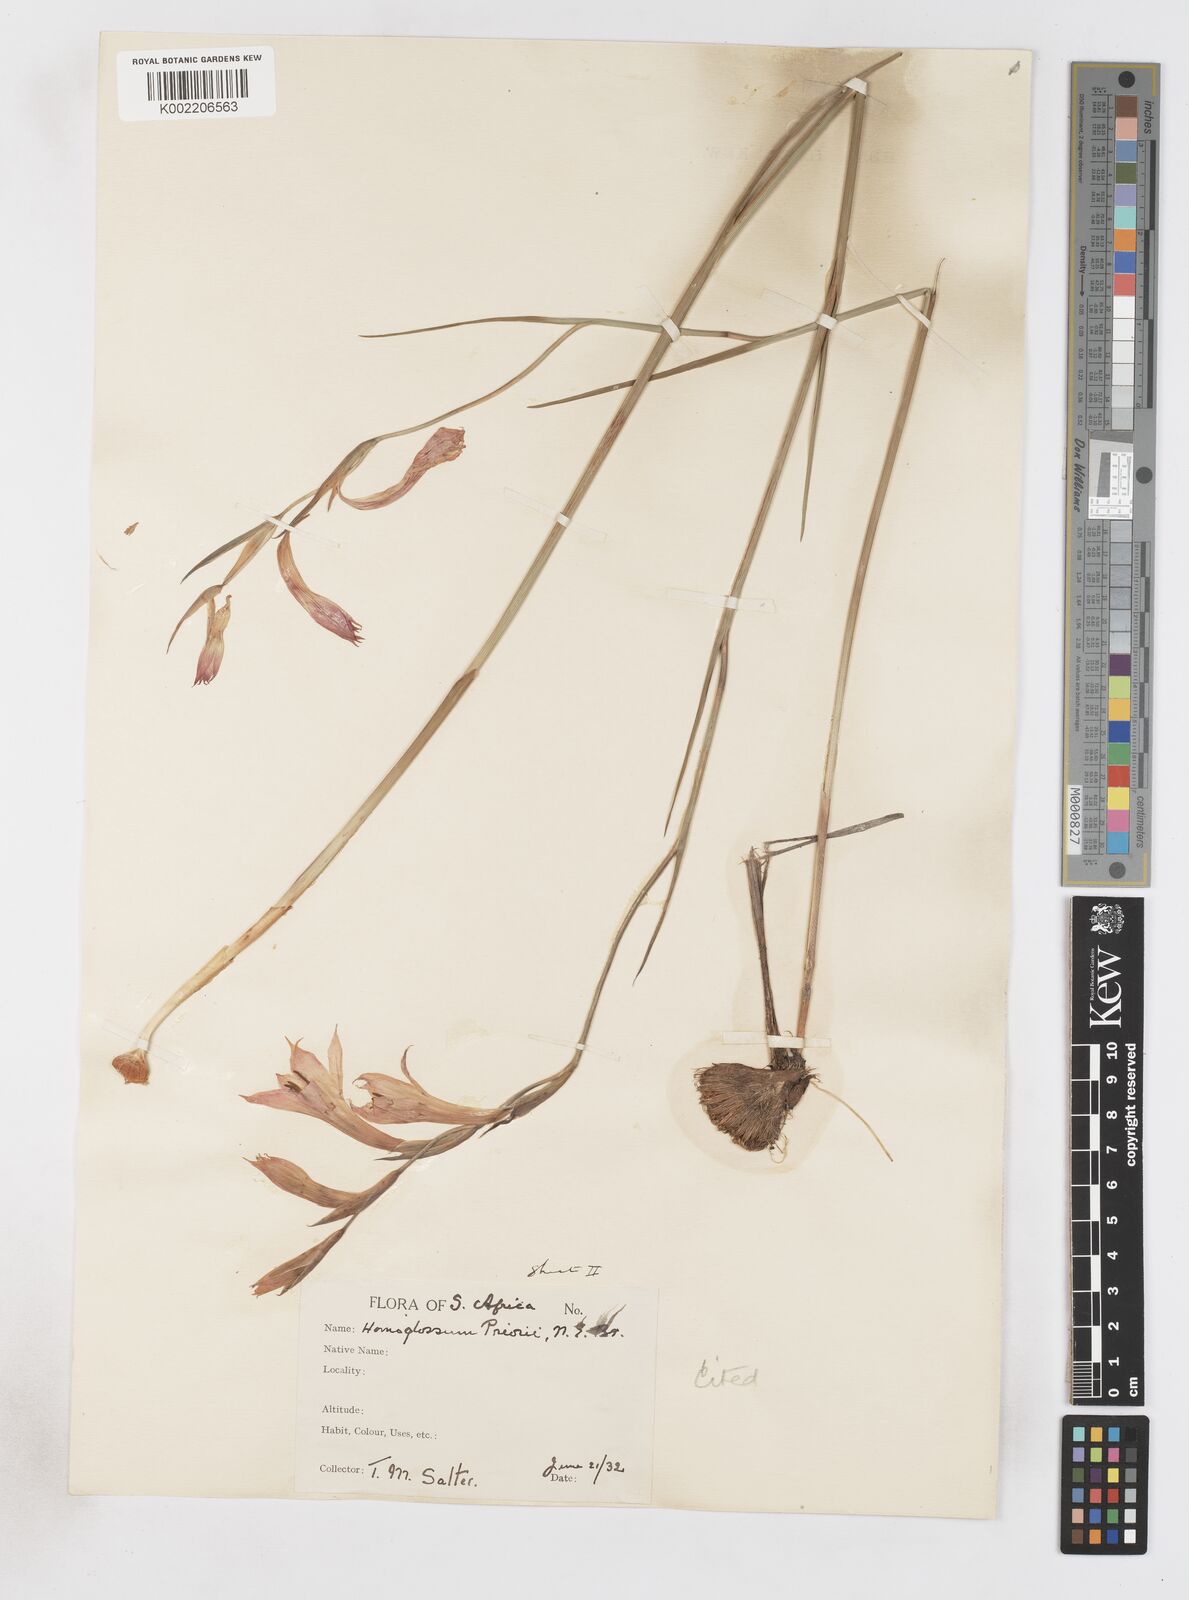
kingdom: Plantae
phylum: Tracheophyta
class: Liliopsida
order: Asparagales
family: Iridaceae
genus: Gladiolus
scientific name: Gladiolus priorii
